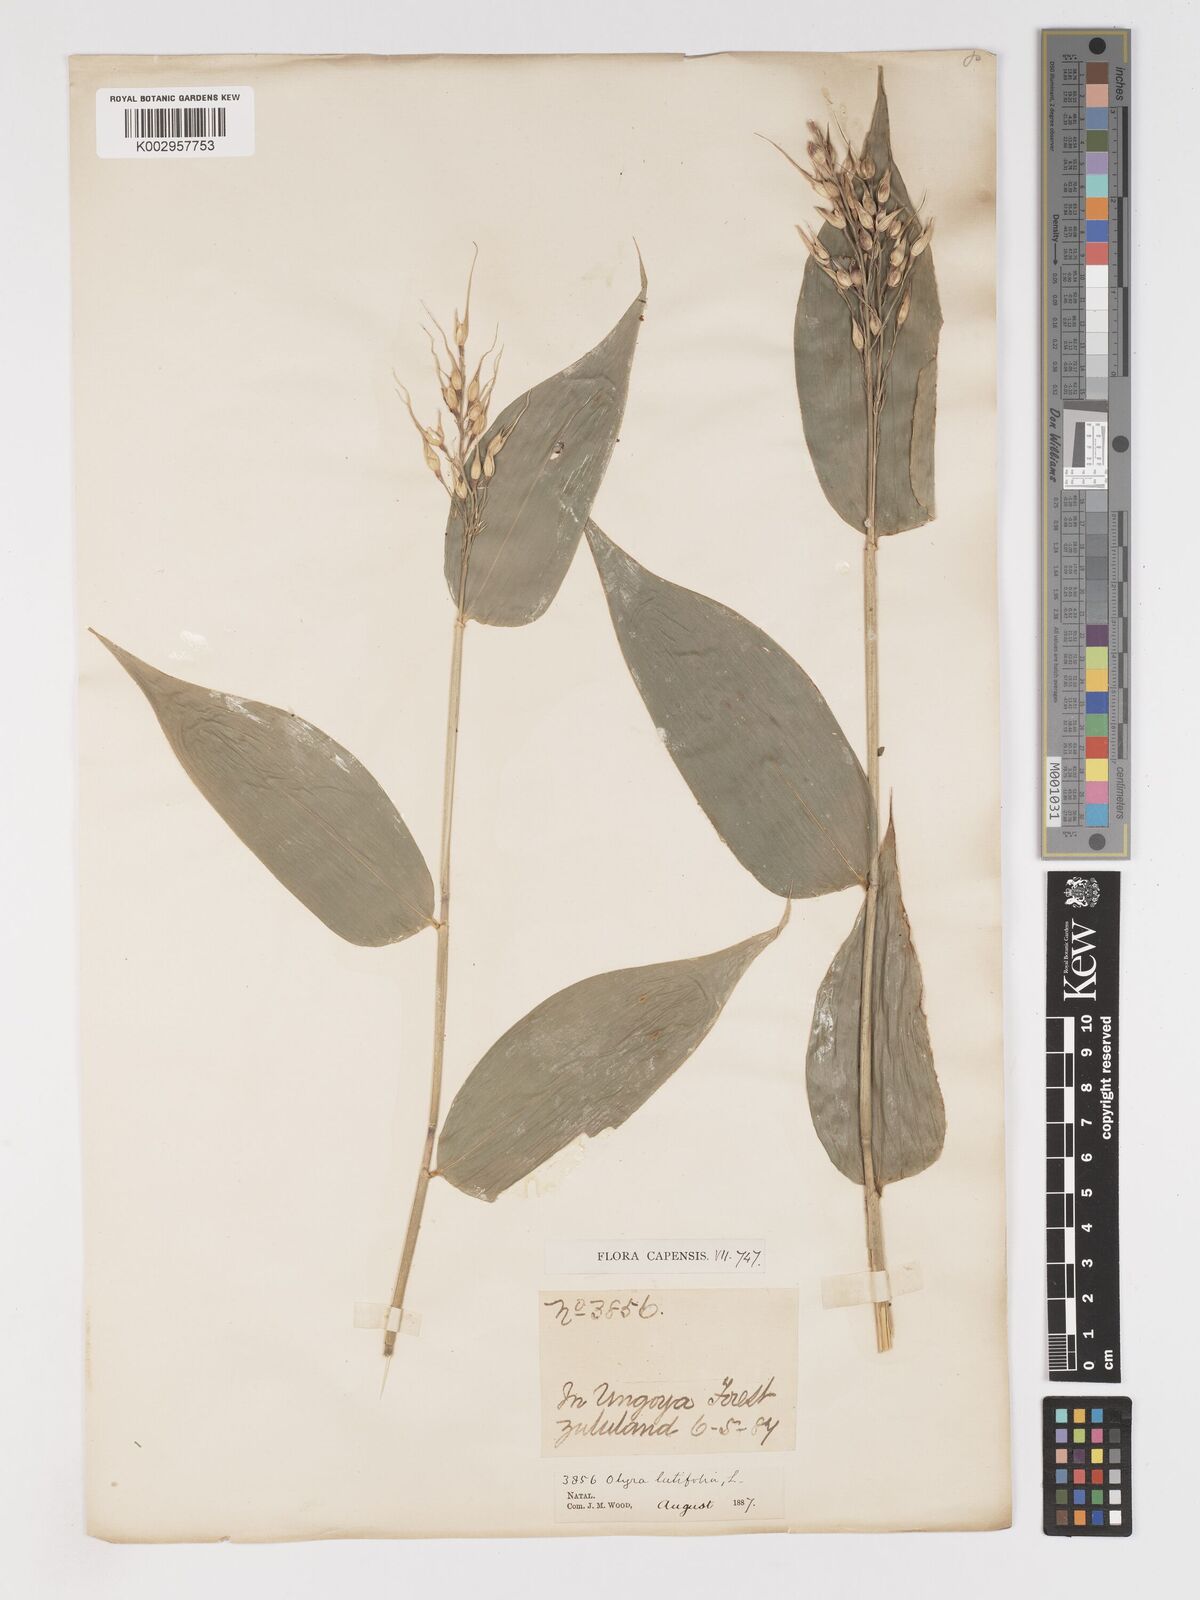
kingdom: Plantae
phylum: Tracheophyta
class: Liliopsida
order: Poales
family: Poaceae
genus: Olyra
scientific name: Olyra latifolia
